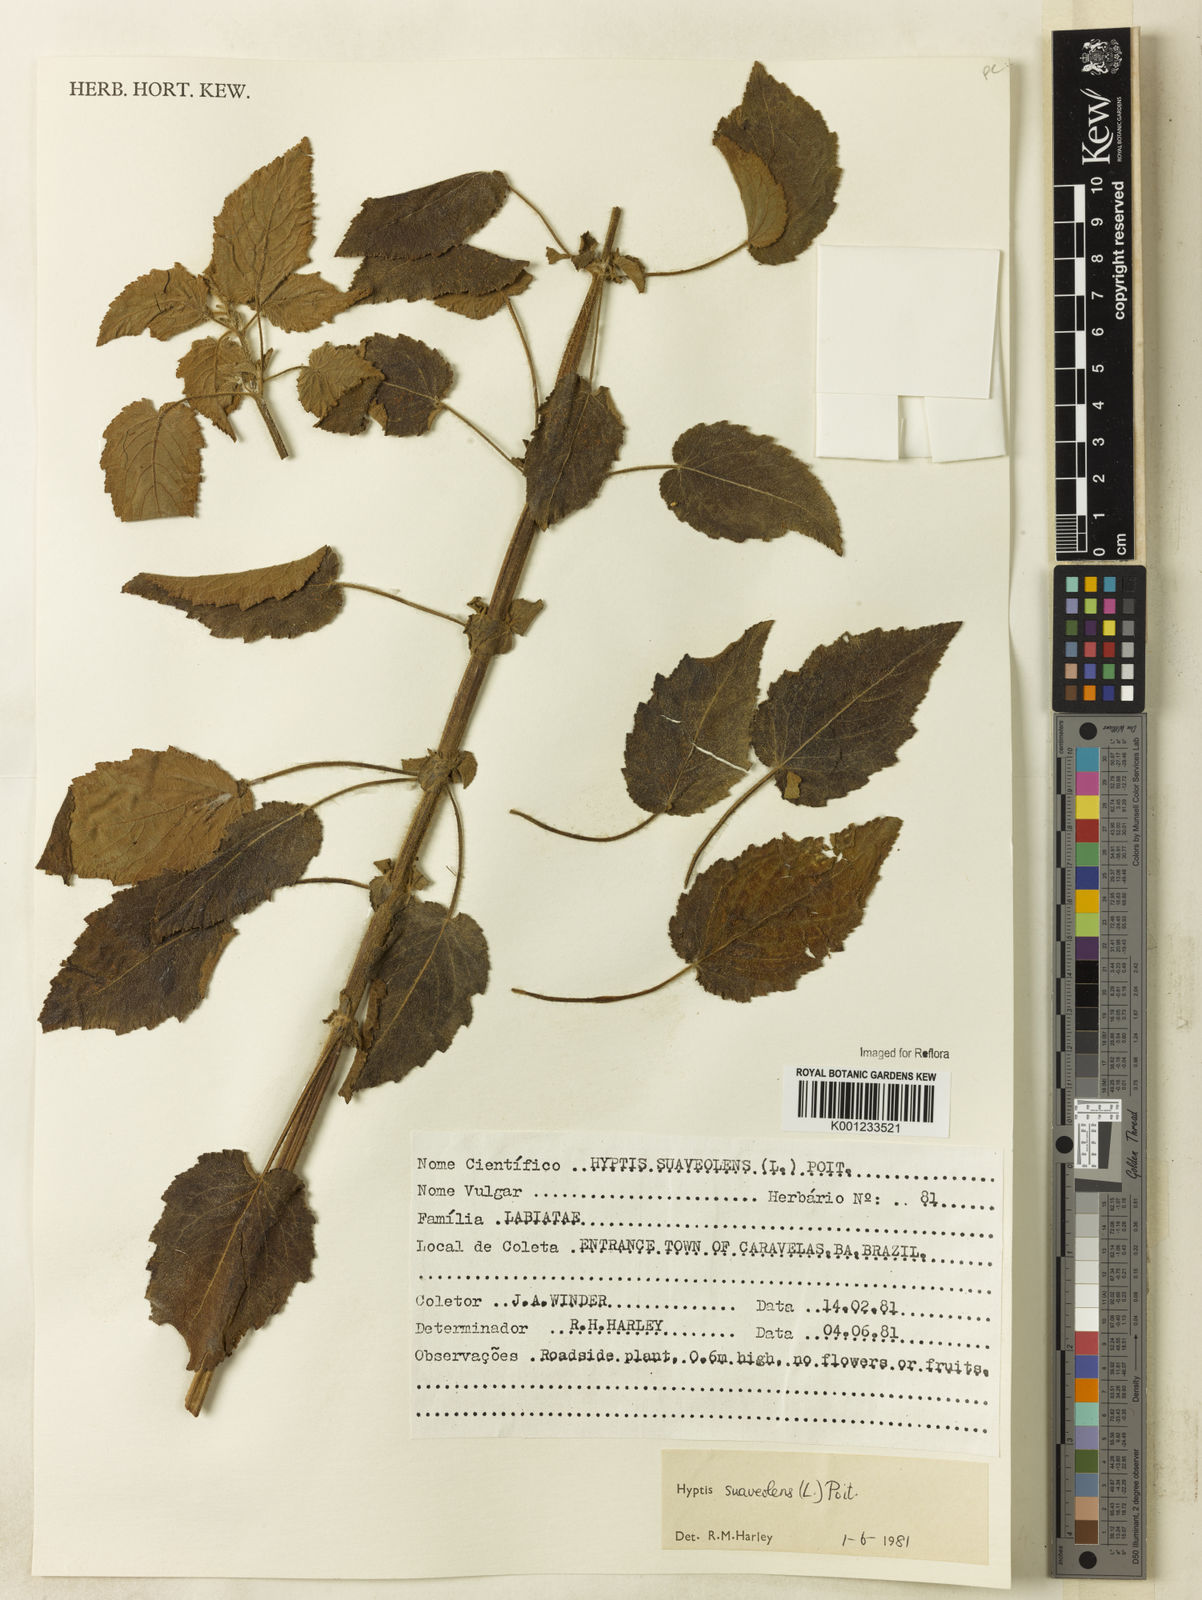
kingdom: Plantae
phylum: Tracheophyta
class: Magnoliopsida
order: Lamiales
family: Lamiaceae
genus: Mesosphaerum
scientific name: Mesosphaerum suaveolens
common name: Pignut
